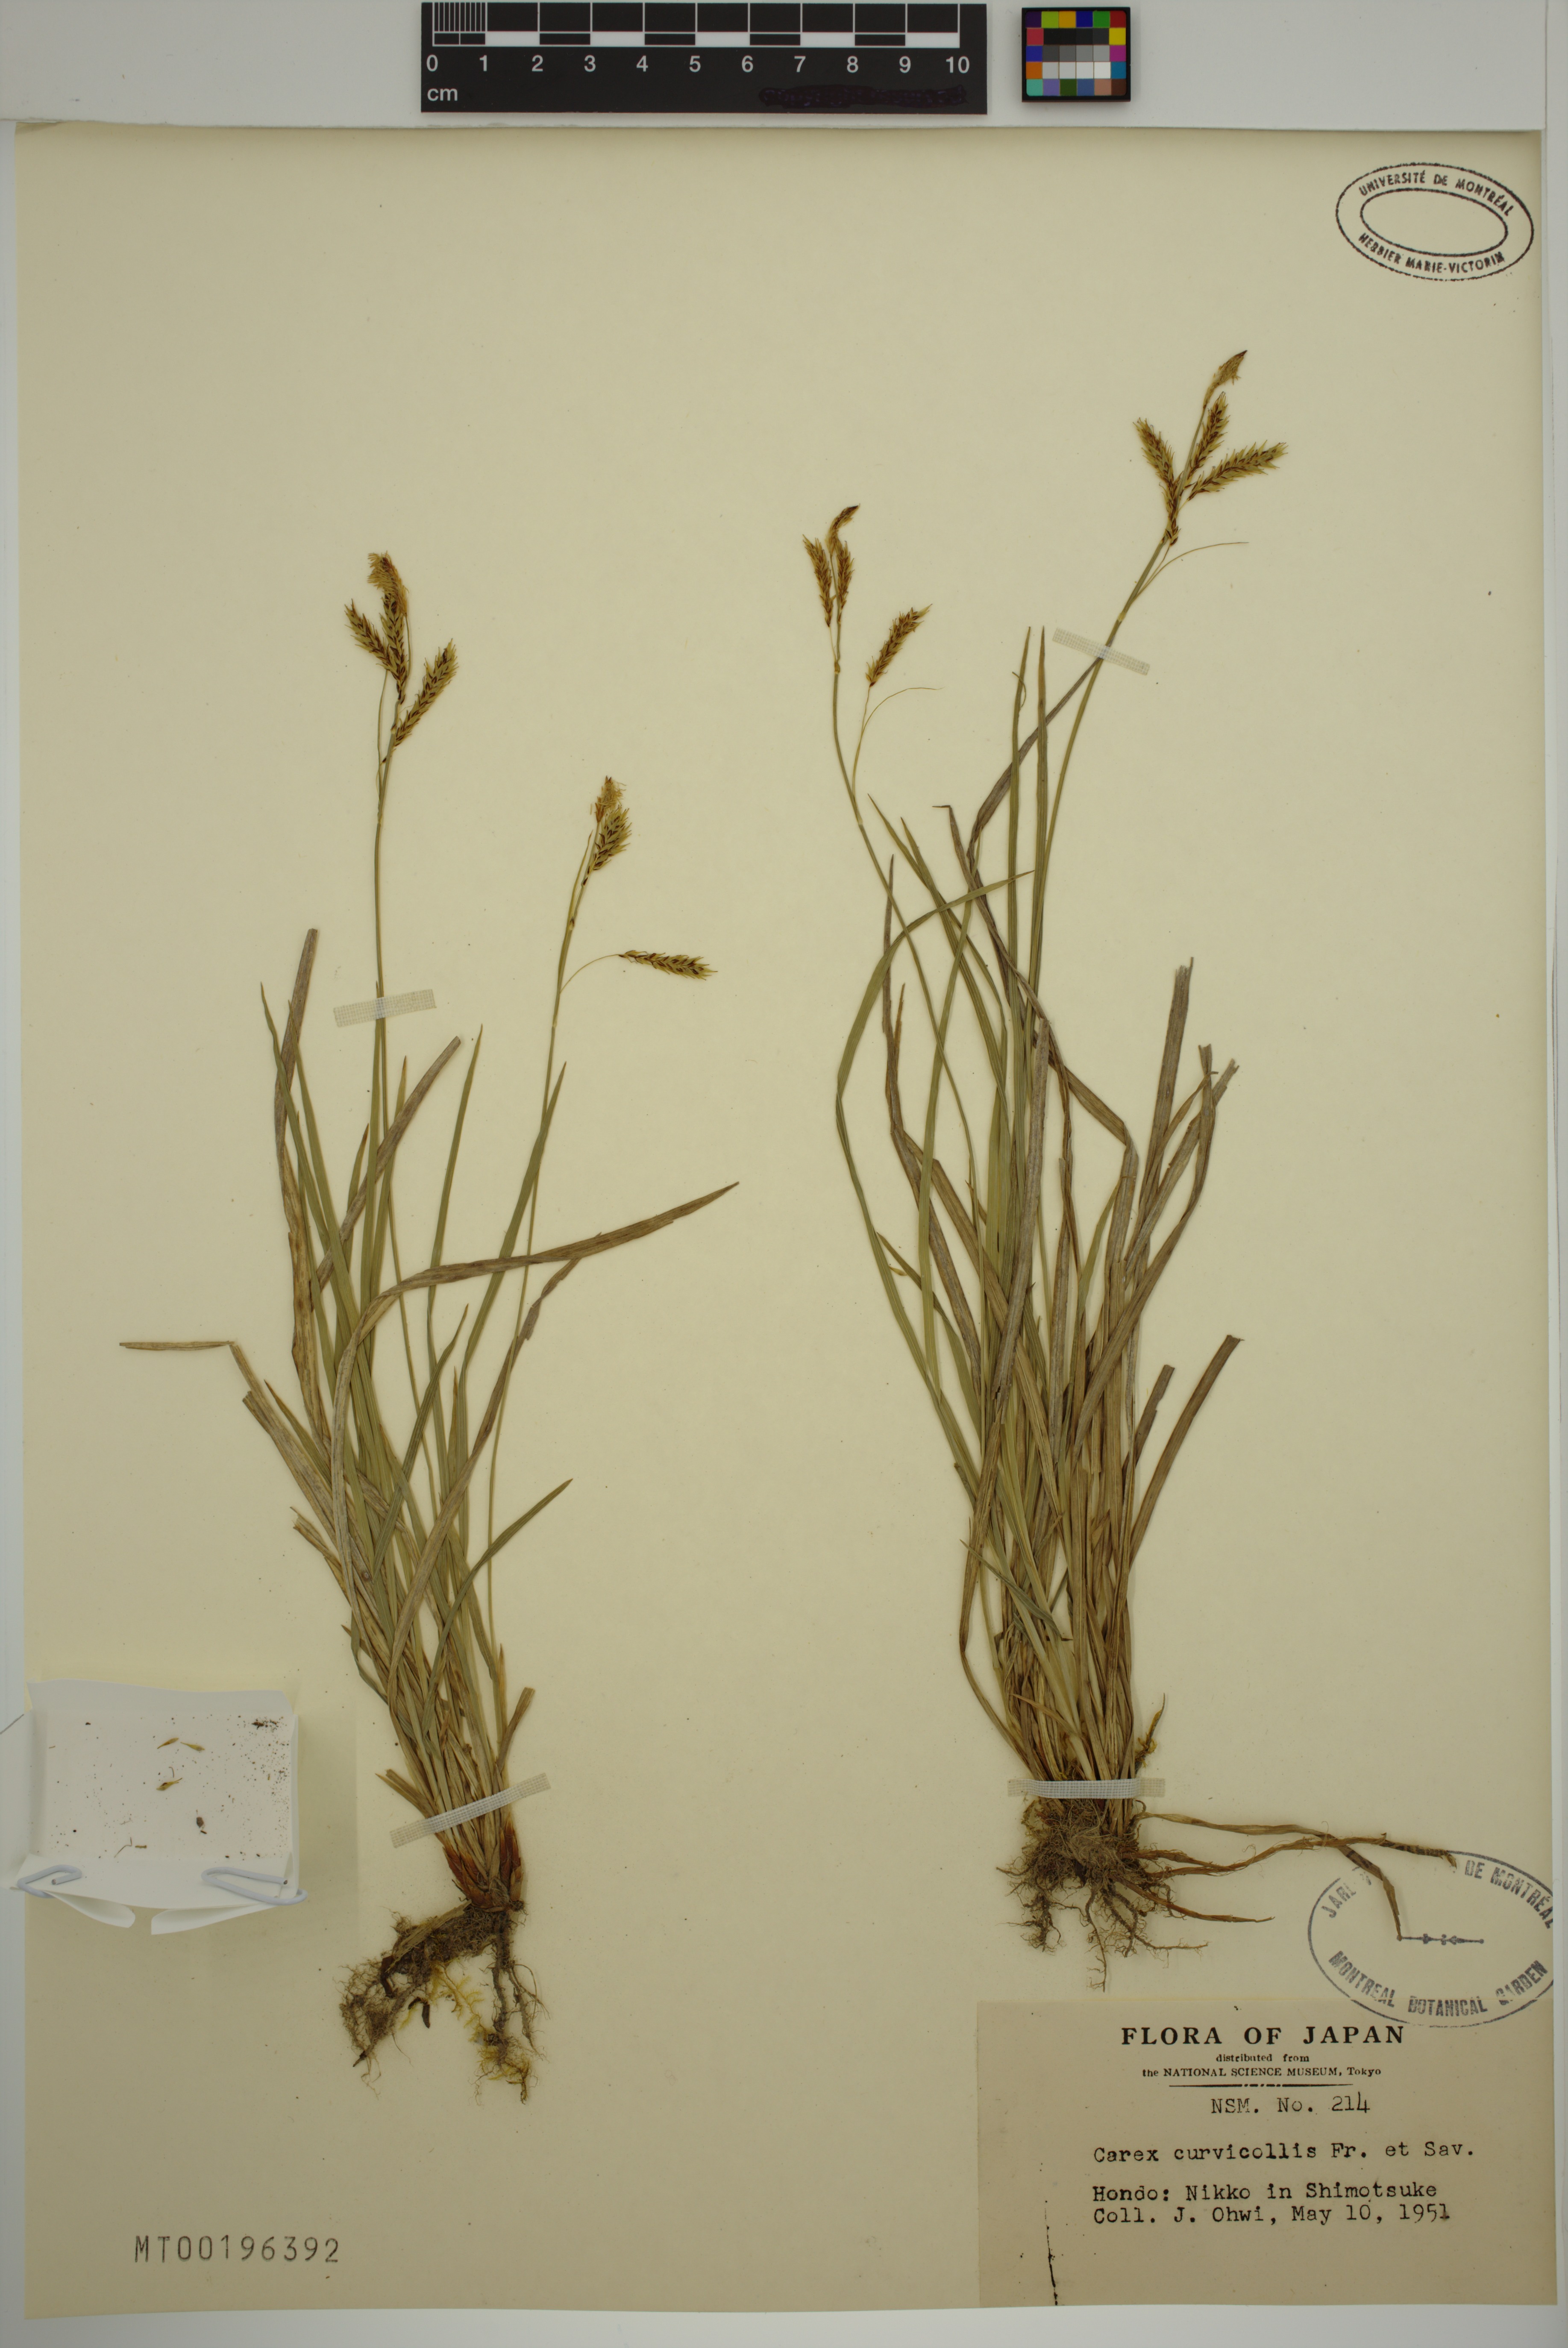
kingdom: Plantae
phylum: Tracheophyta
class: Liliopsida
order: Poales
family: Cyperaceae
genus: Carex
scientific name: Carex curvicollis
